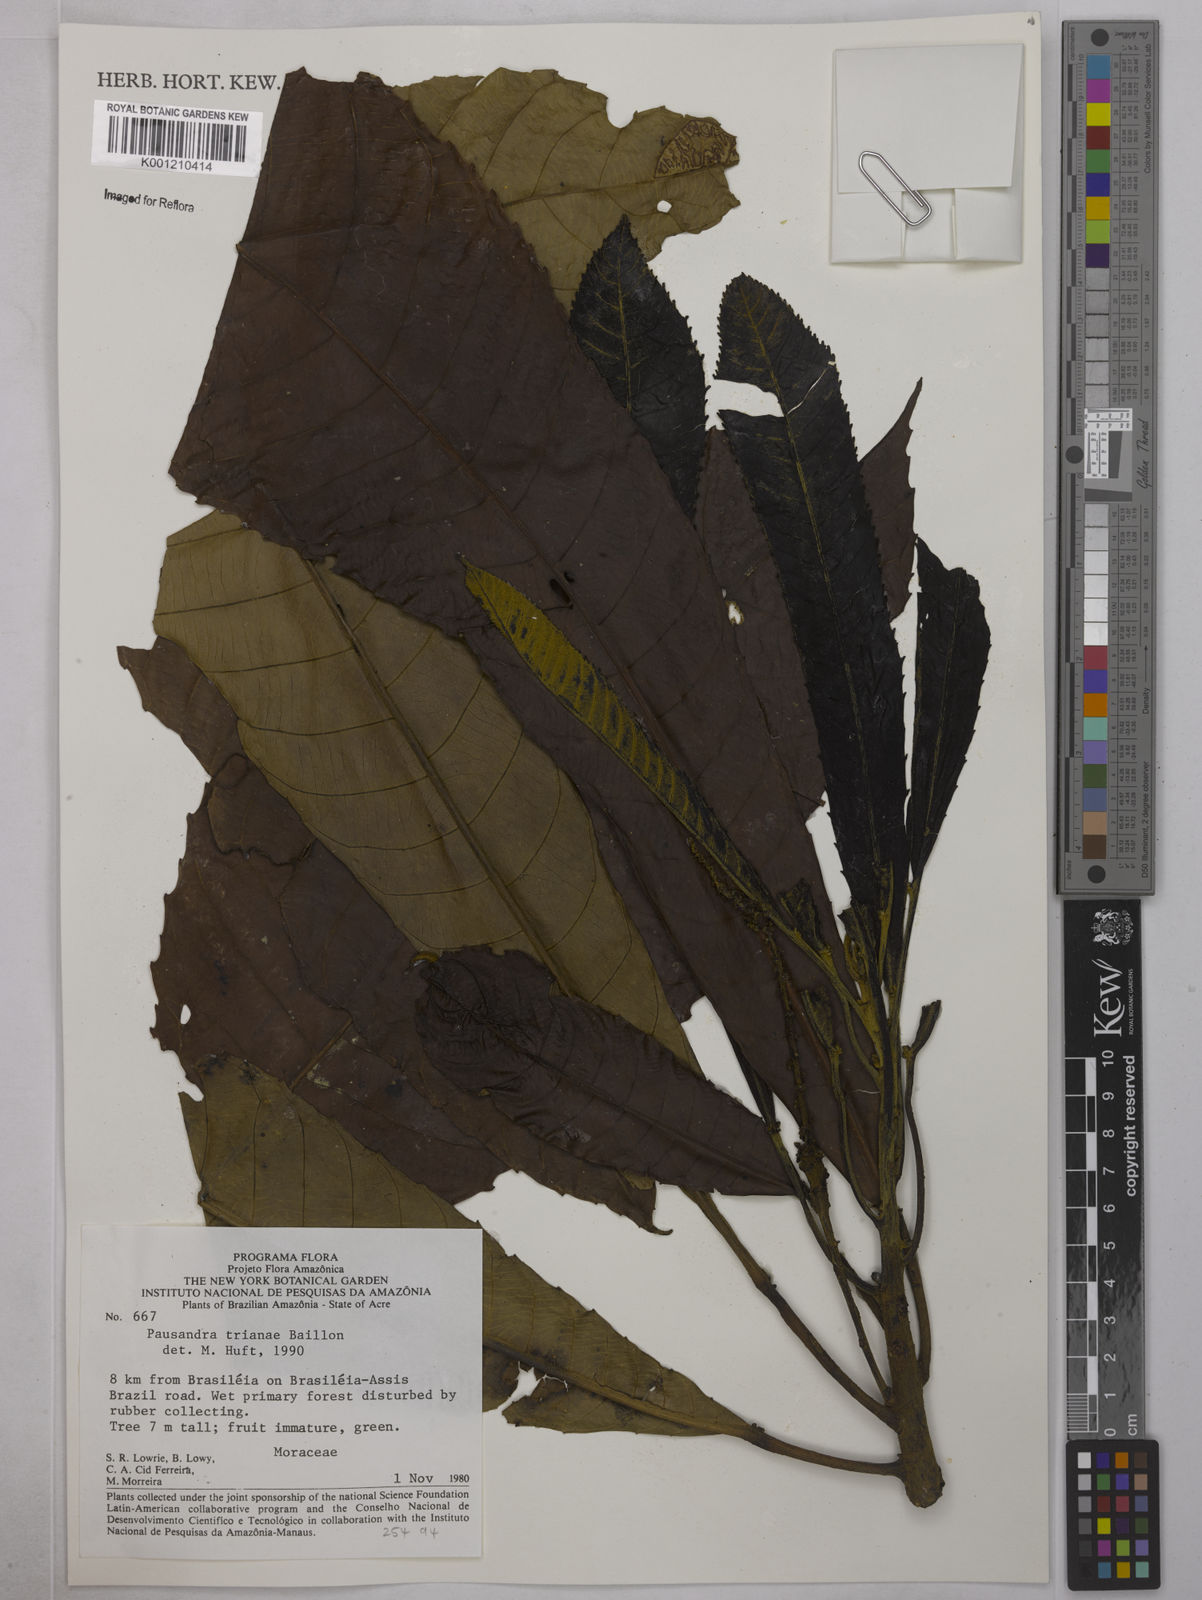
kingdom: Plantae
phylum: Tracheophyta
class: Magnoliopsida
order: Malpighiales
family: Euphorbiaceae
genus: Pausandra
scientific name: Pausandra
